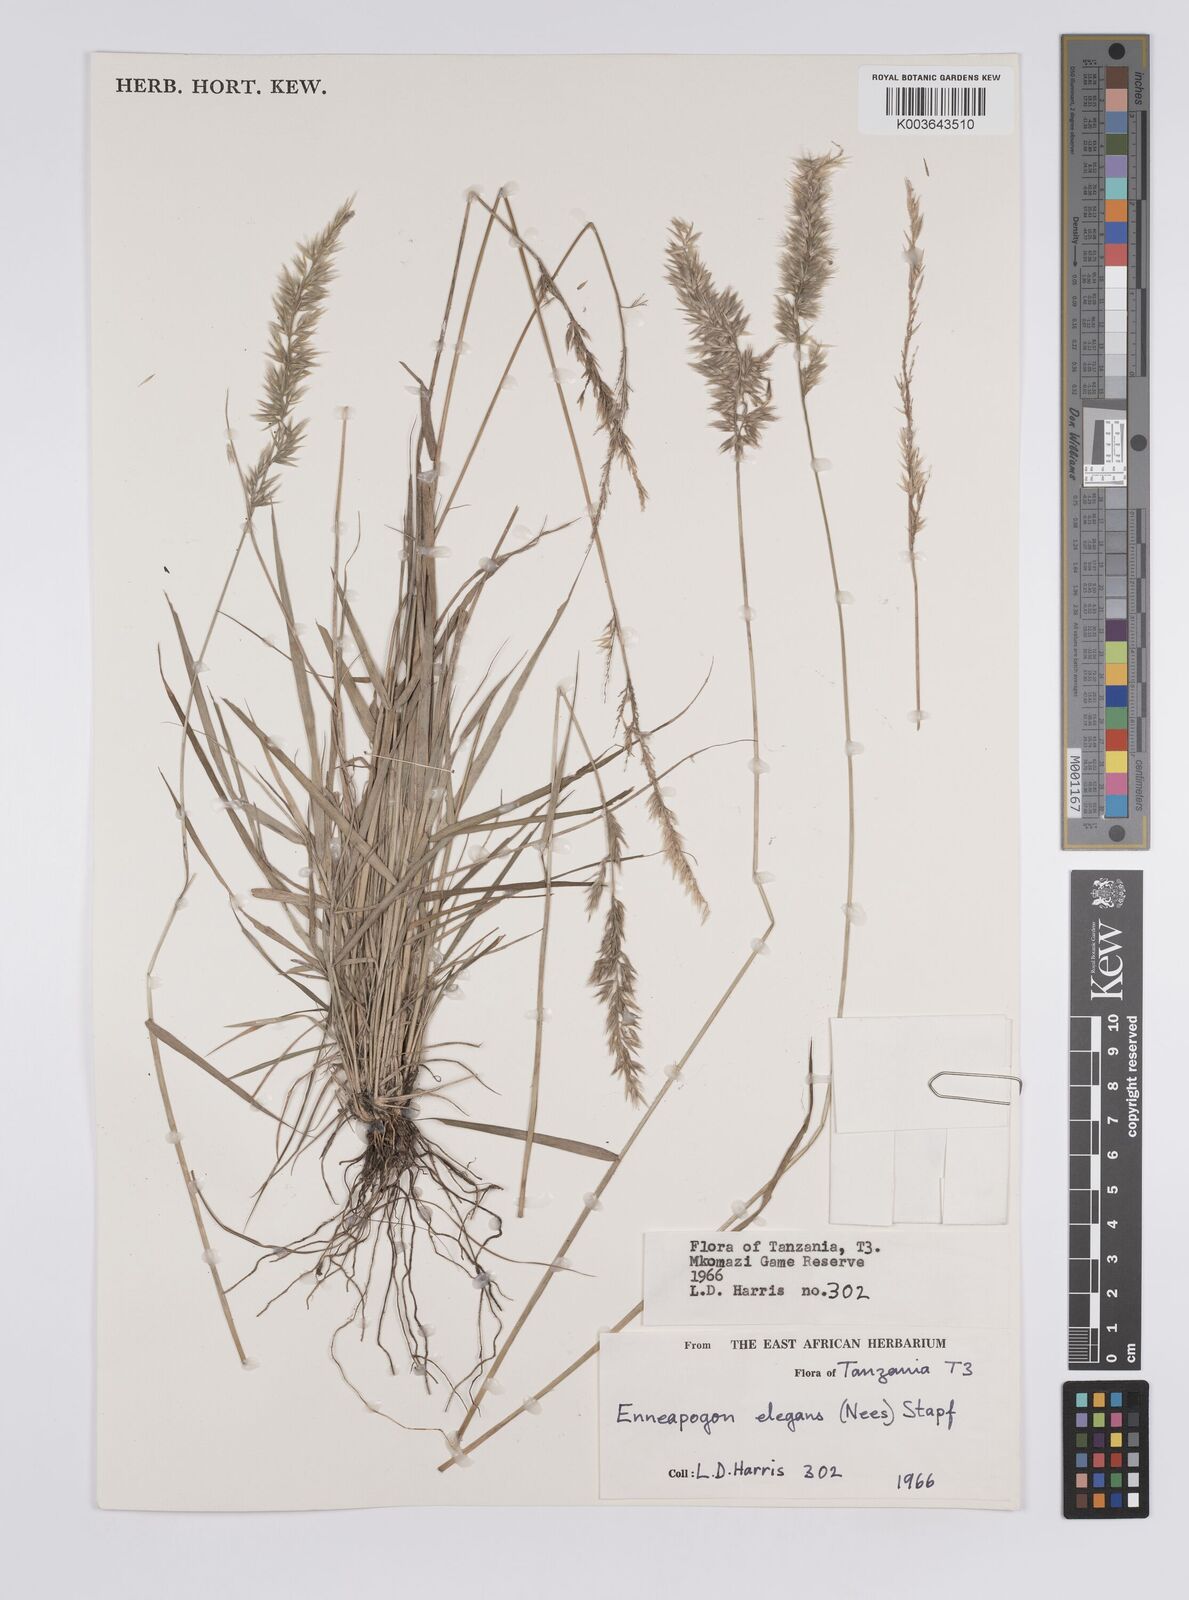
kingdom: Plantae
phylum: Tracheophyta
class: Liliopsida
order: Poales
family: Poaceae
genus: Enneapogon
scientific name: Enneapogon persicus
